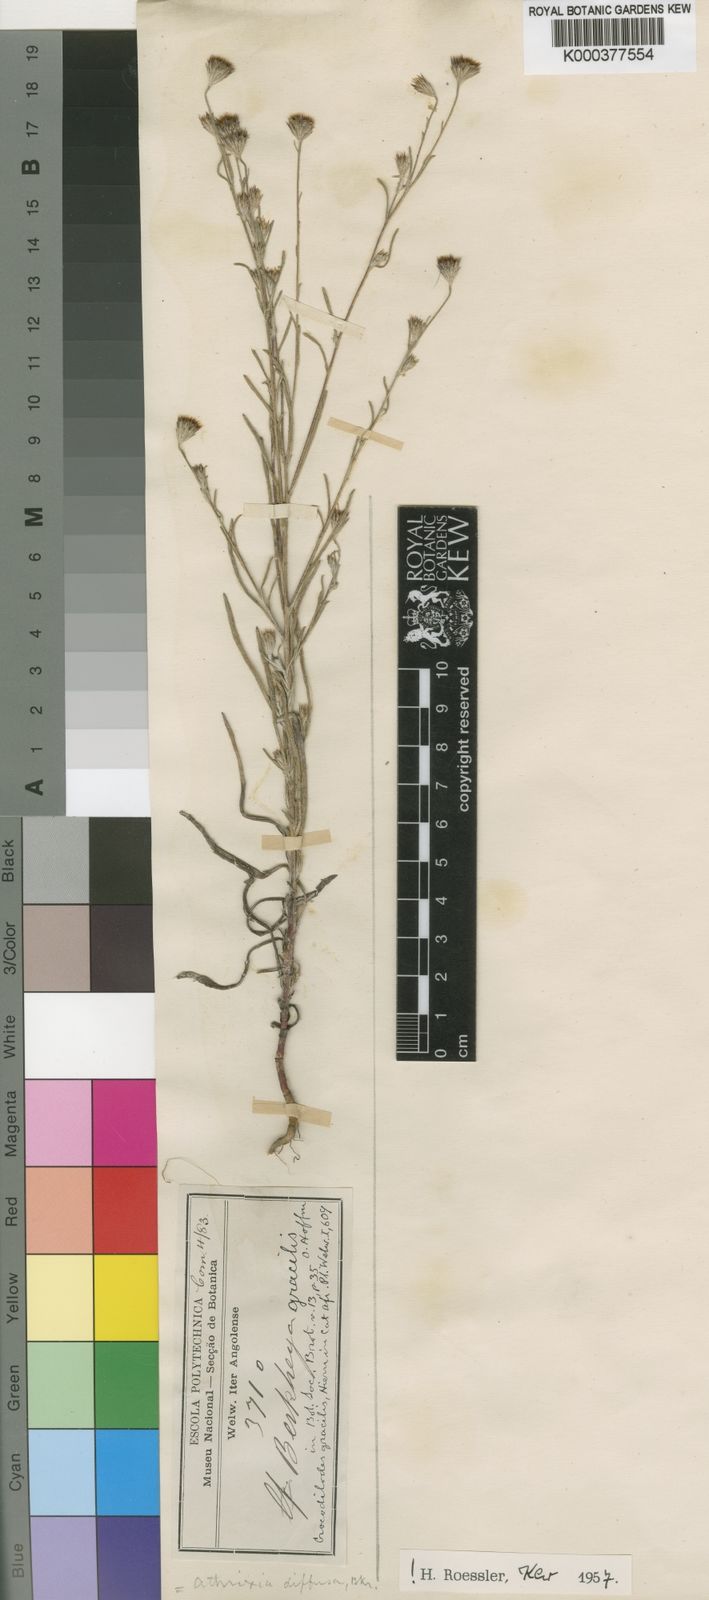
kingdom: Plantae
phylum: Tracheophyta
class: Magnoliopsida
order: Asterales
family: Asteraceae
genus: Gorteria
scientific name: Gorteria gracilis
